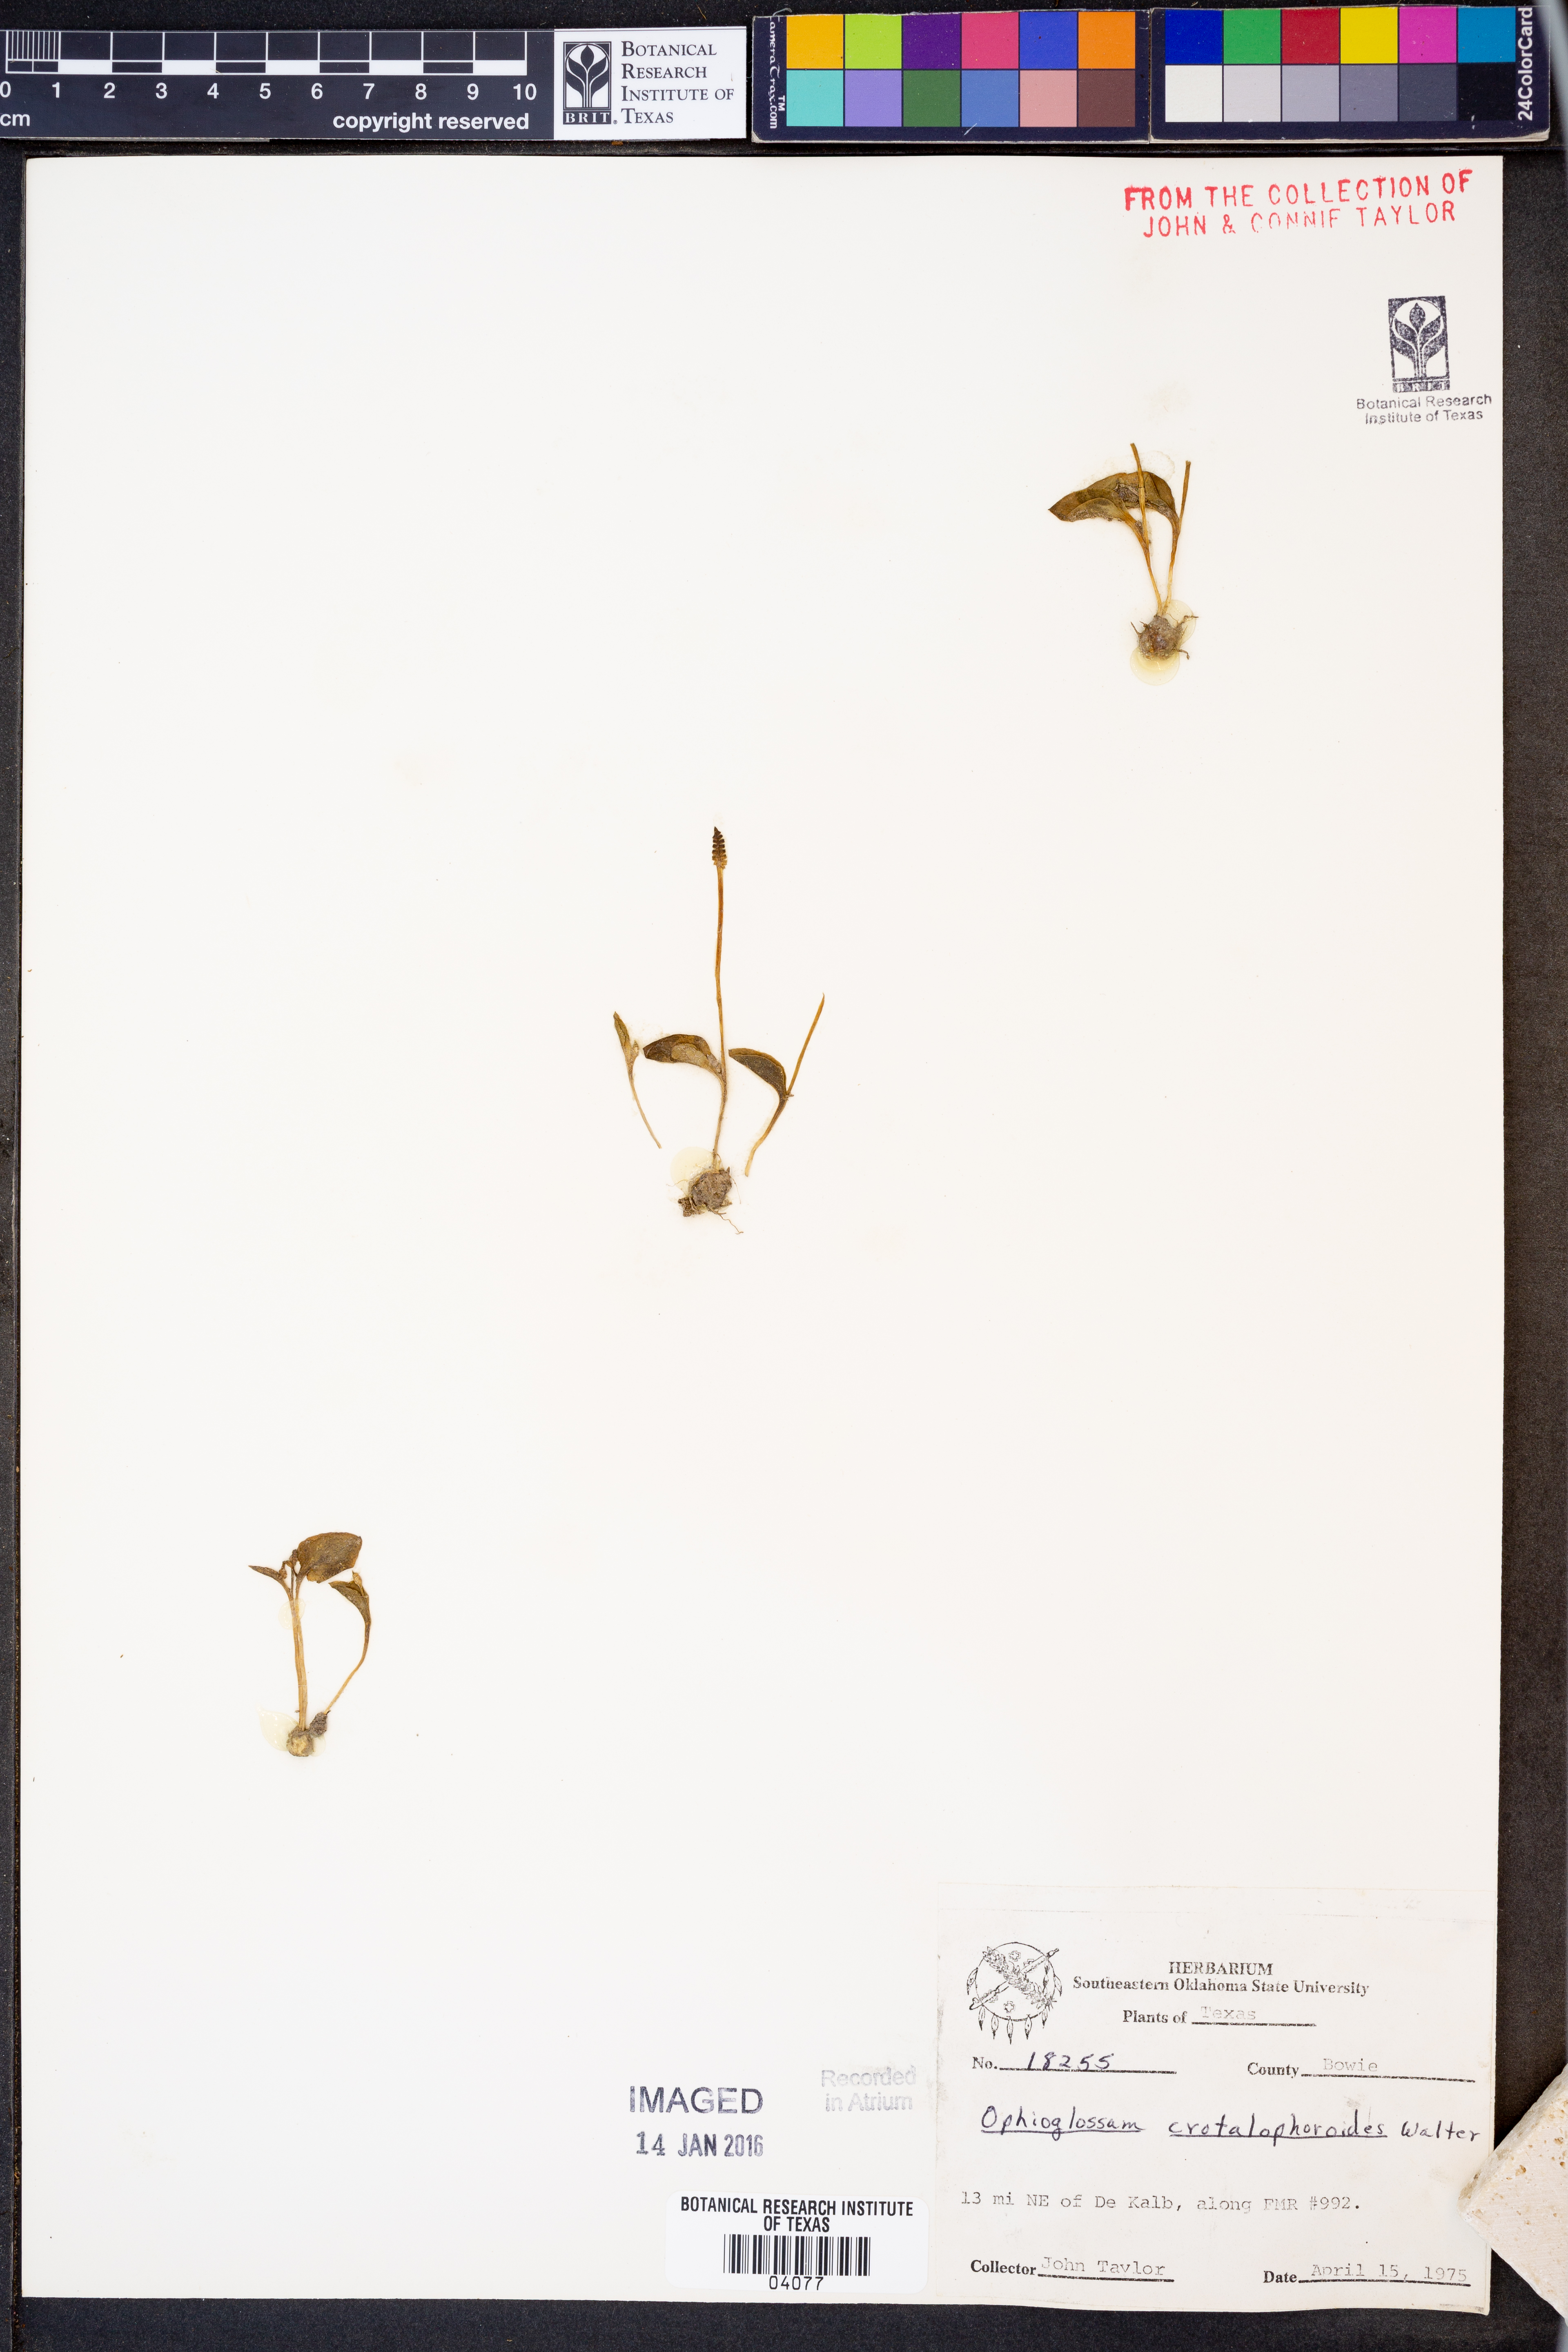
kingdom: Plantae
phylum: Tracheophyta
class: Polypodiopsida
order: Ophioglossales
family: Ophioglossaceae
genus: Ophioglossum
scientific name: Ophioglossum crotalophoroides
